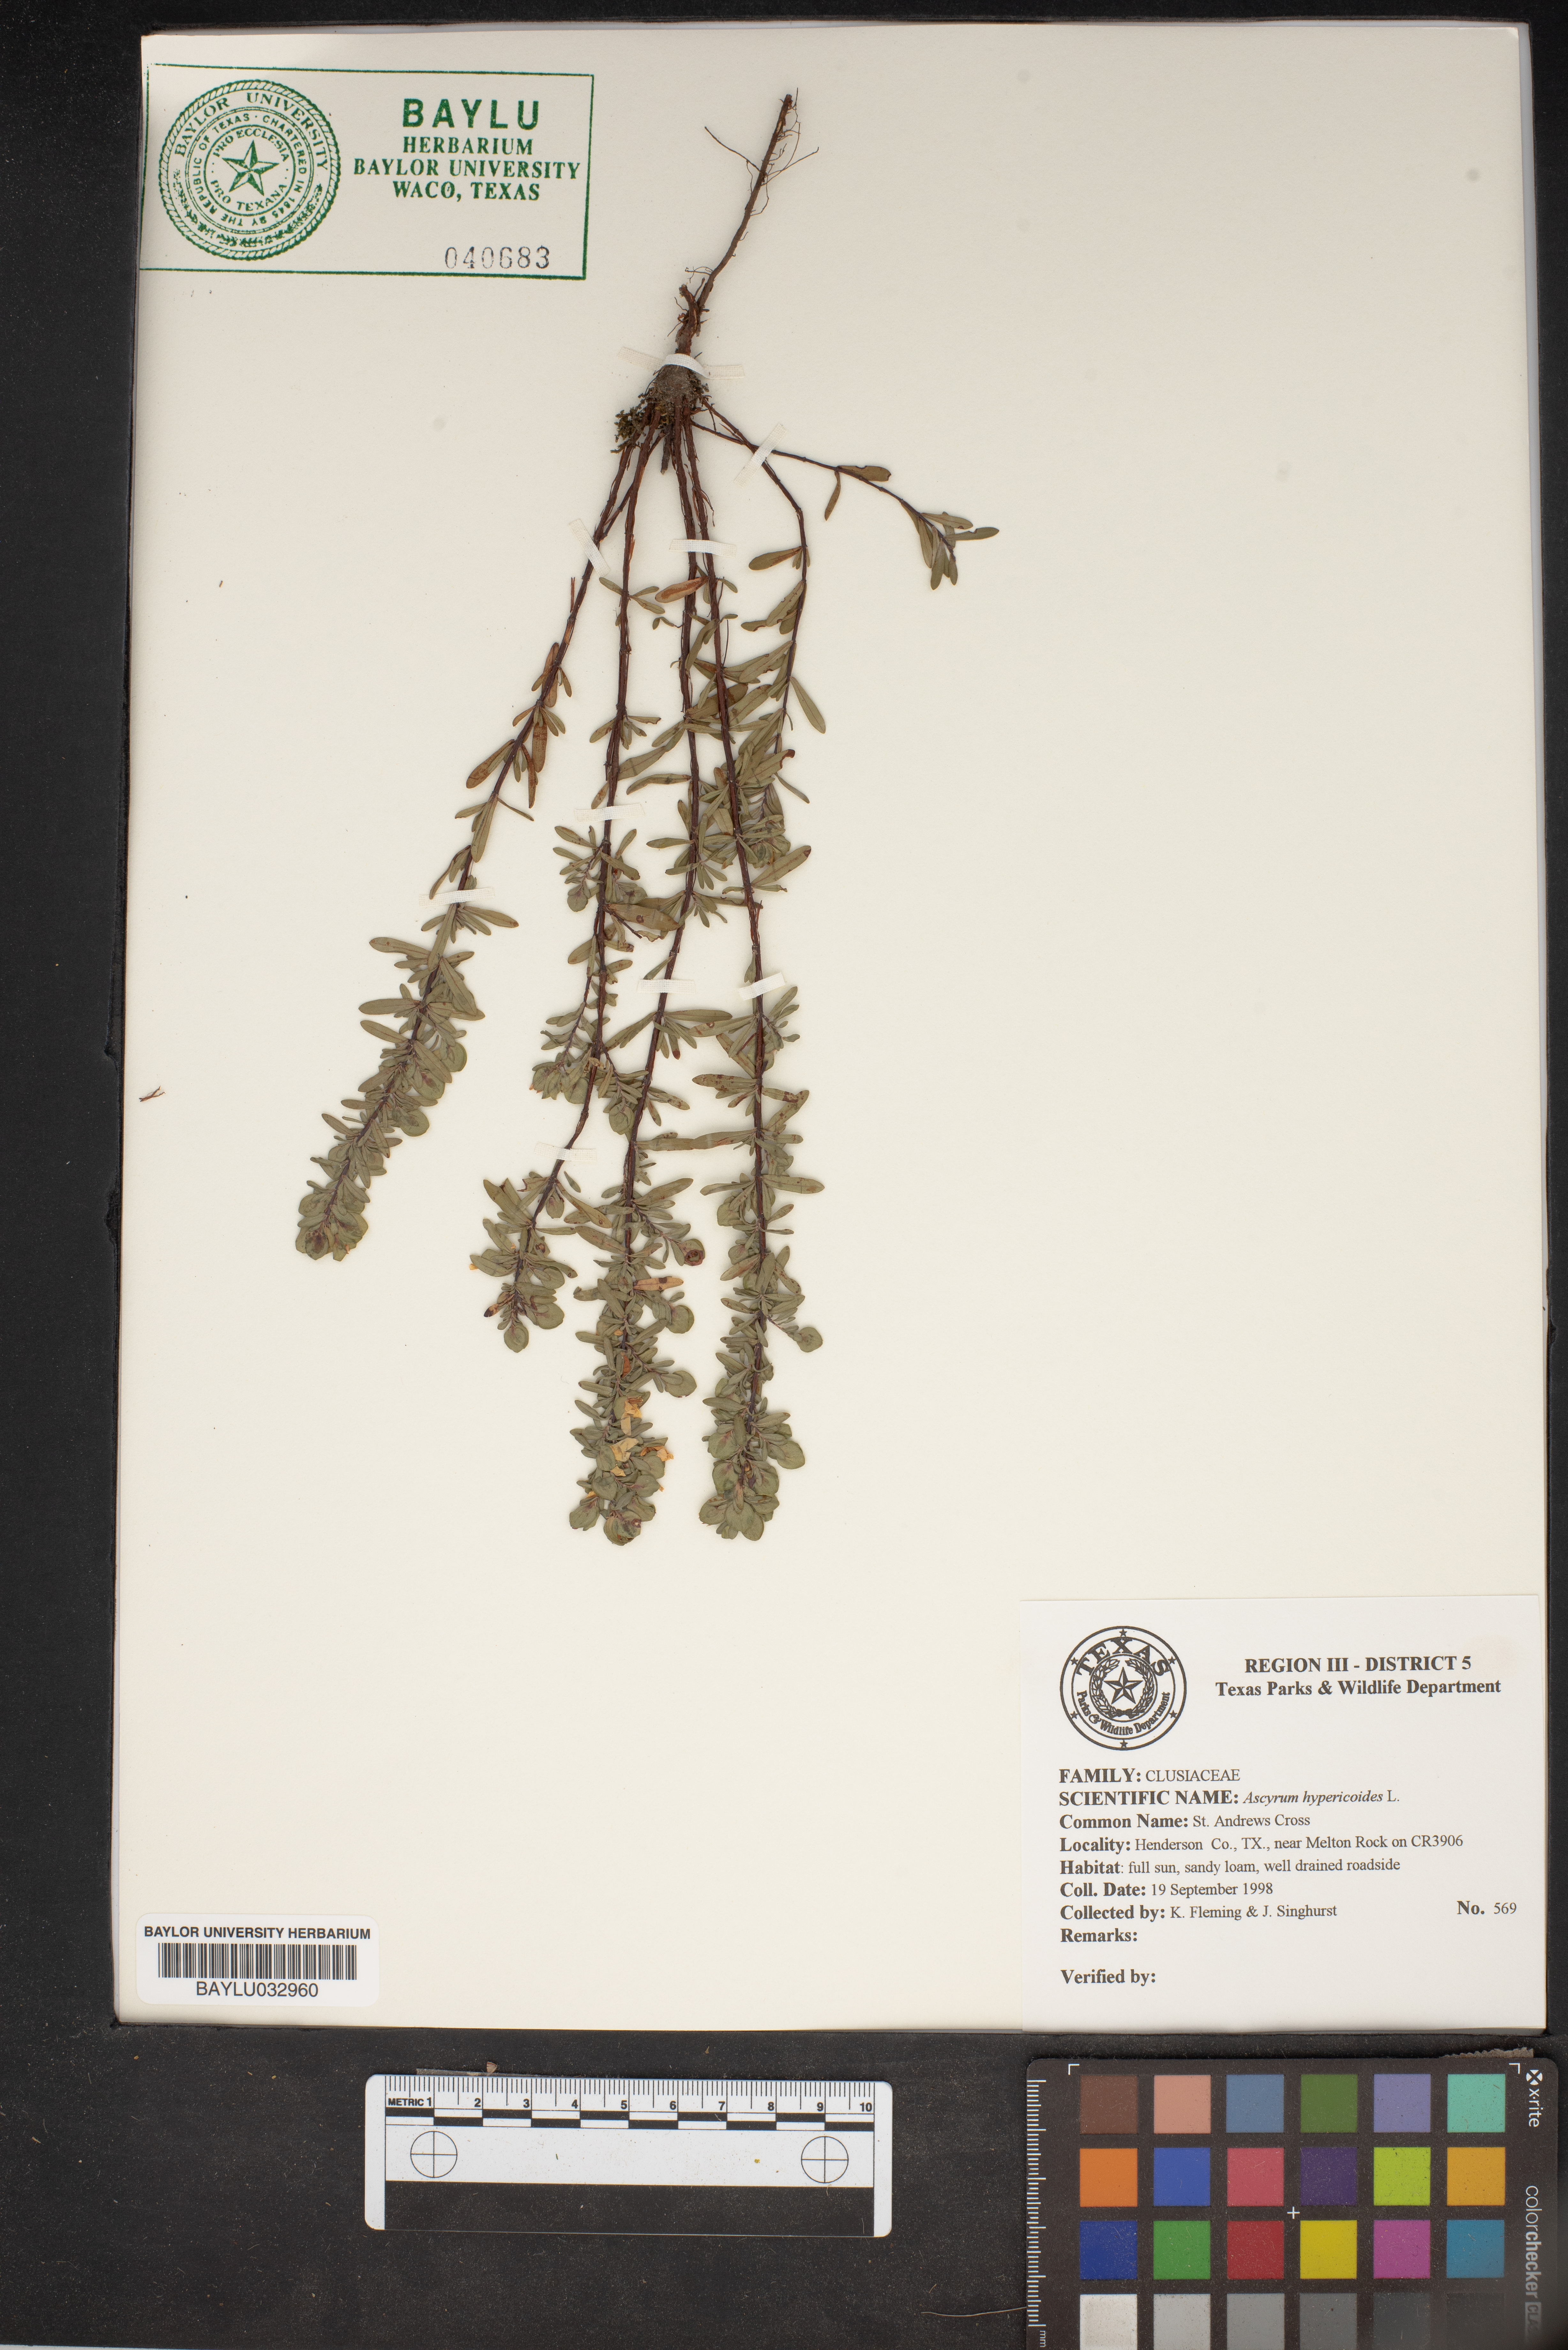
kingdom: Plantae
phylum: Tracheophyta
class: Magnoliopsida
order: Malpighiales
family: Hypericaceae
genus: Hypericum
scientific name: Hypericum hypericoides
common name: St. andrew's cross
